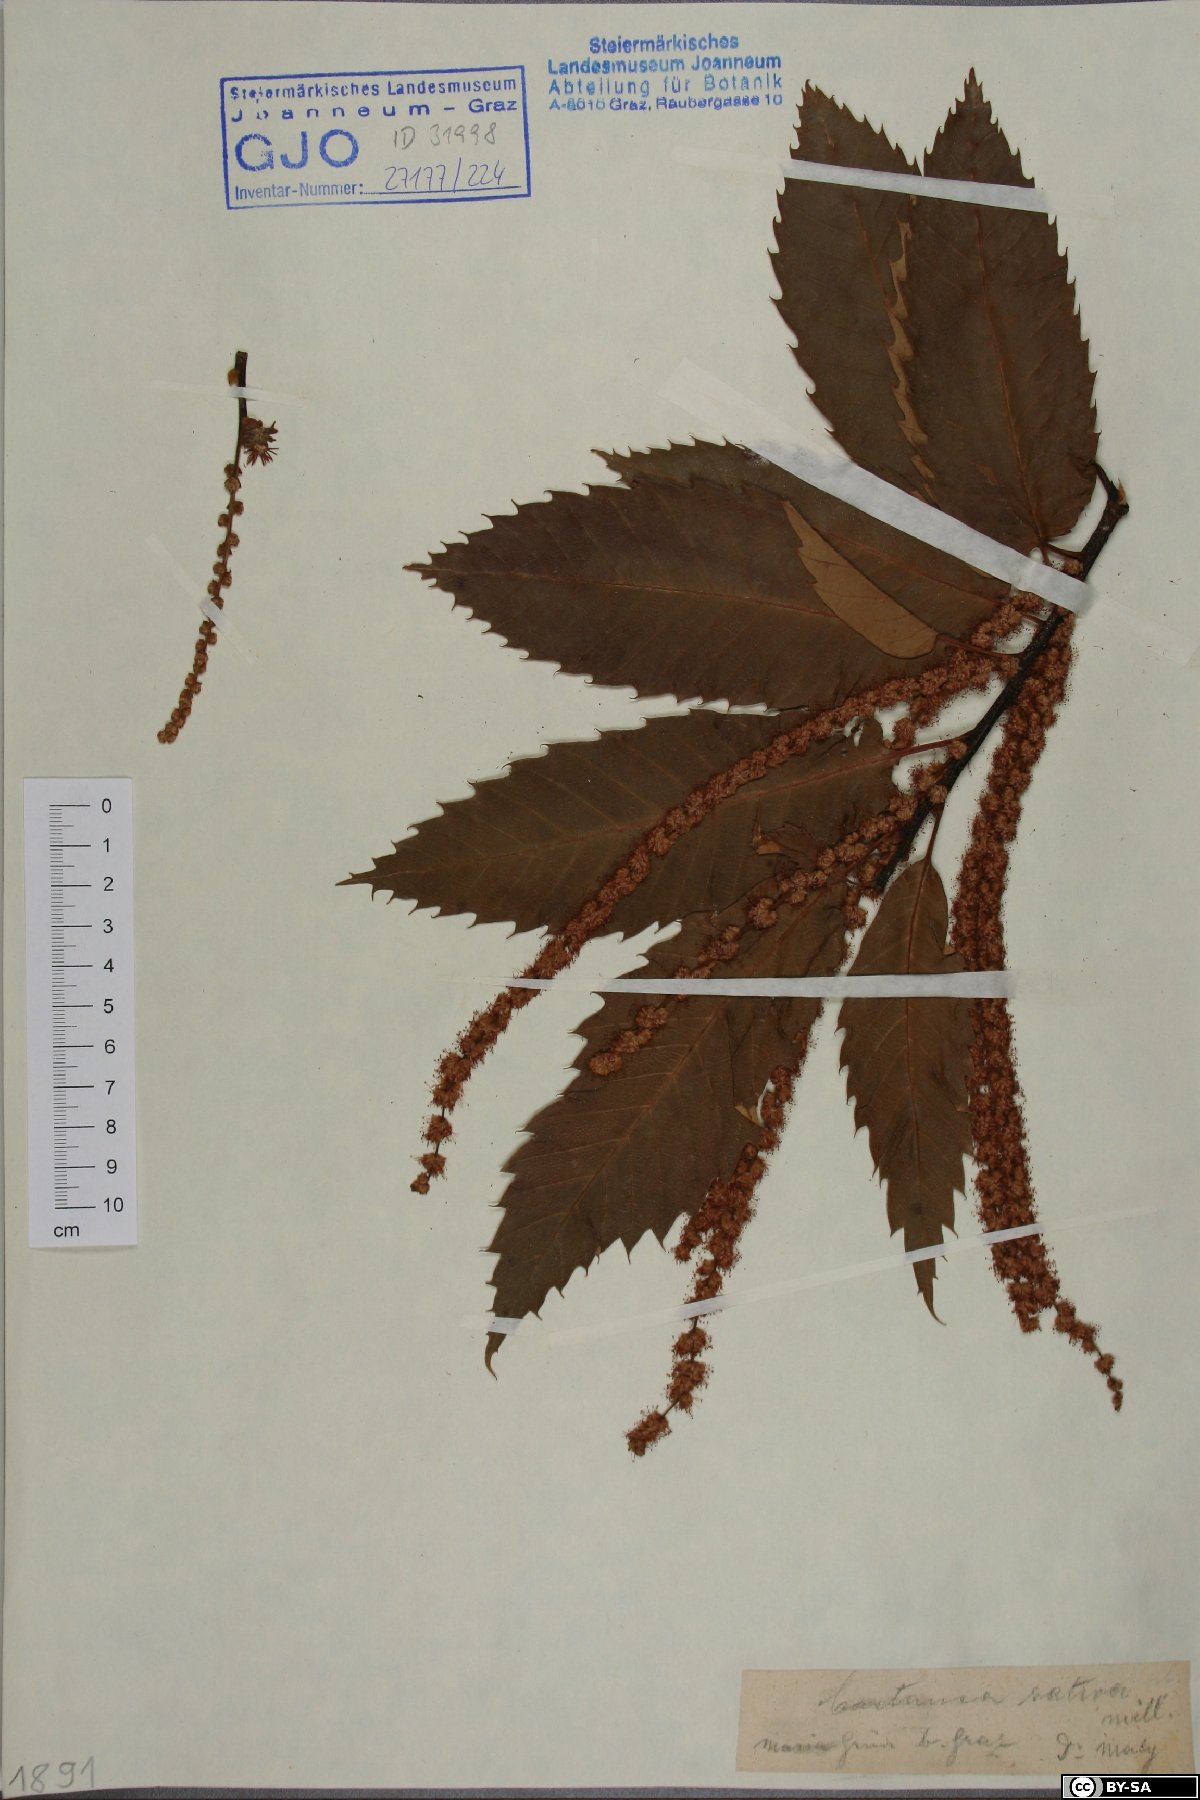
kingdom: Plantae
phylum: Tracheophyta
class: Magnoliopsida
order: Fagales
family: Fagaceae
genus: Castanea
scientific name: Castanea sativa
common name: Sweet chestnut
